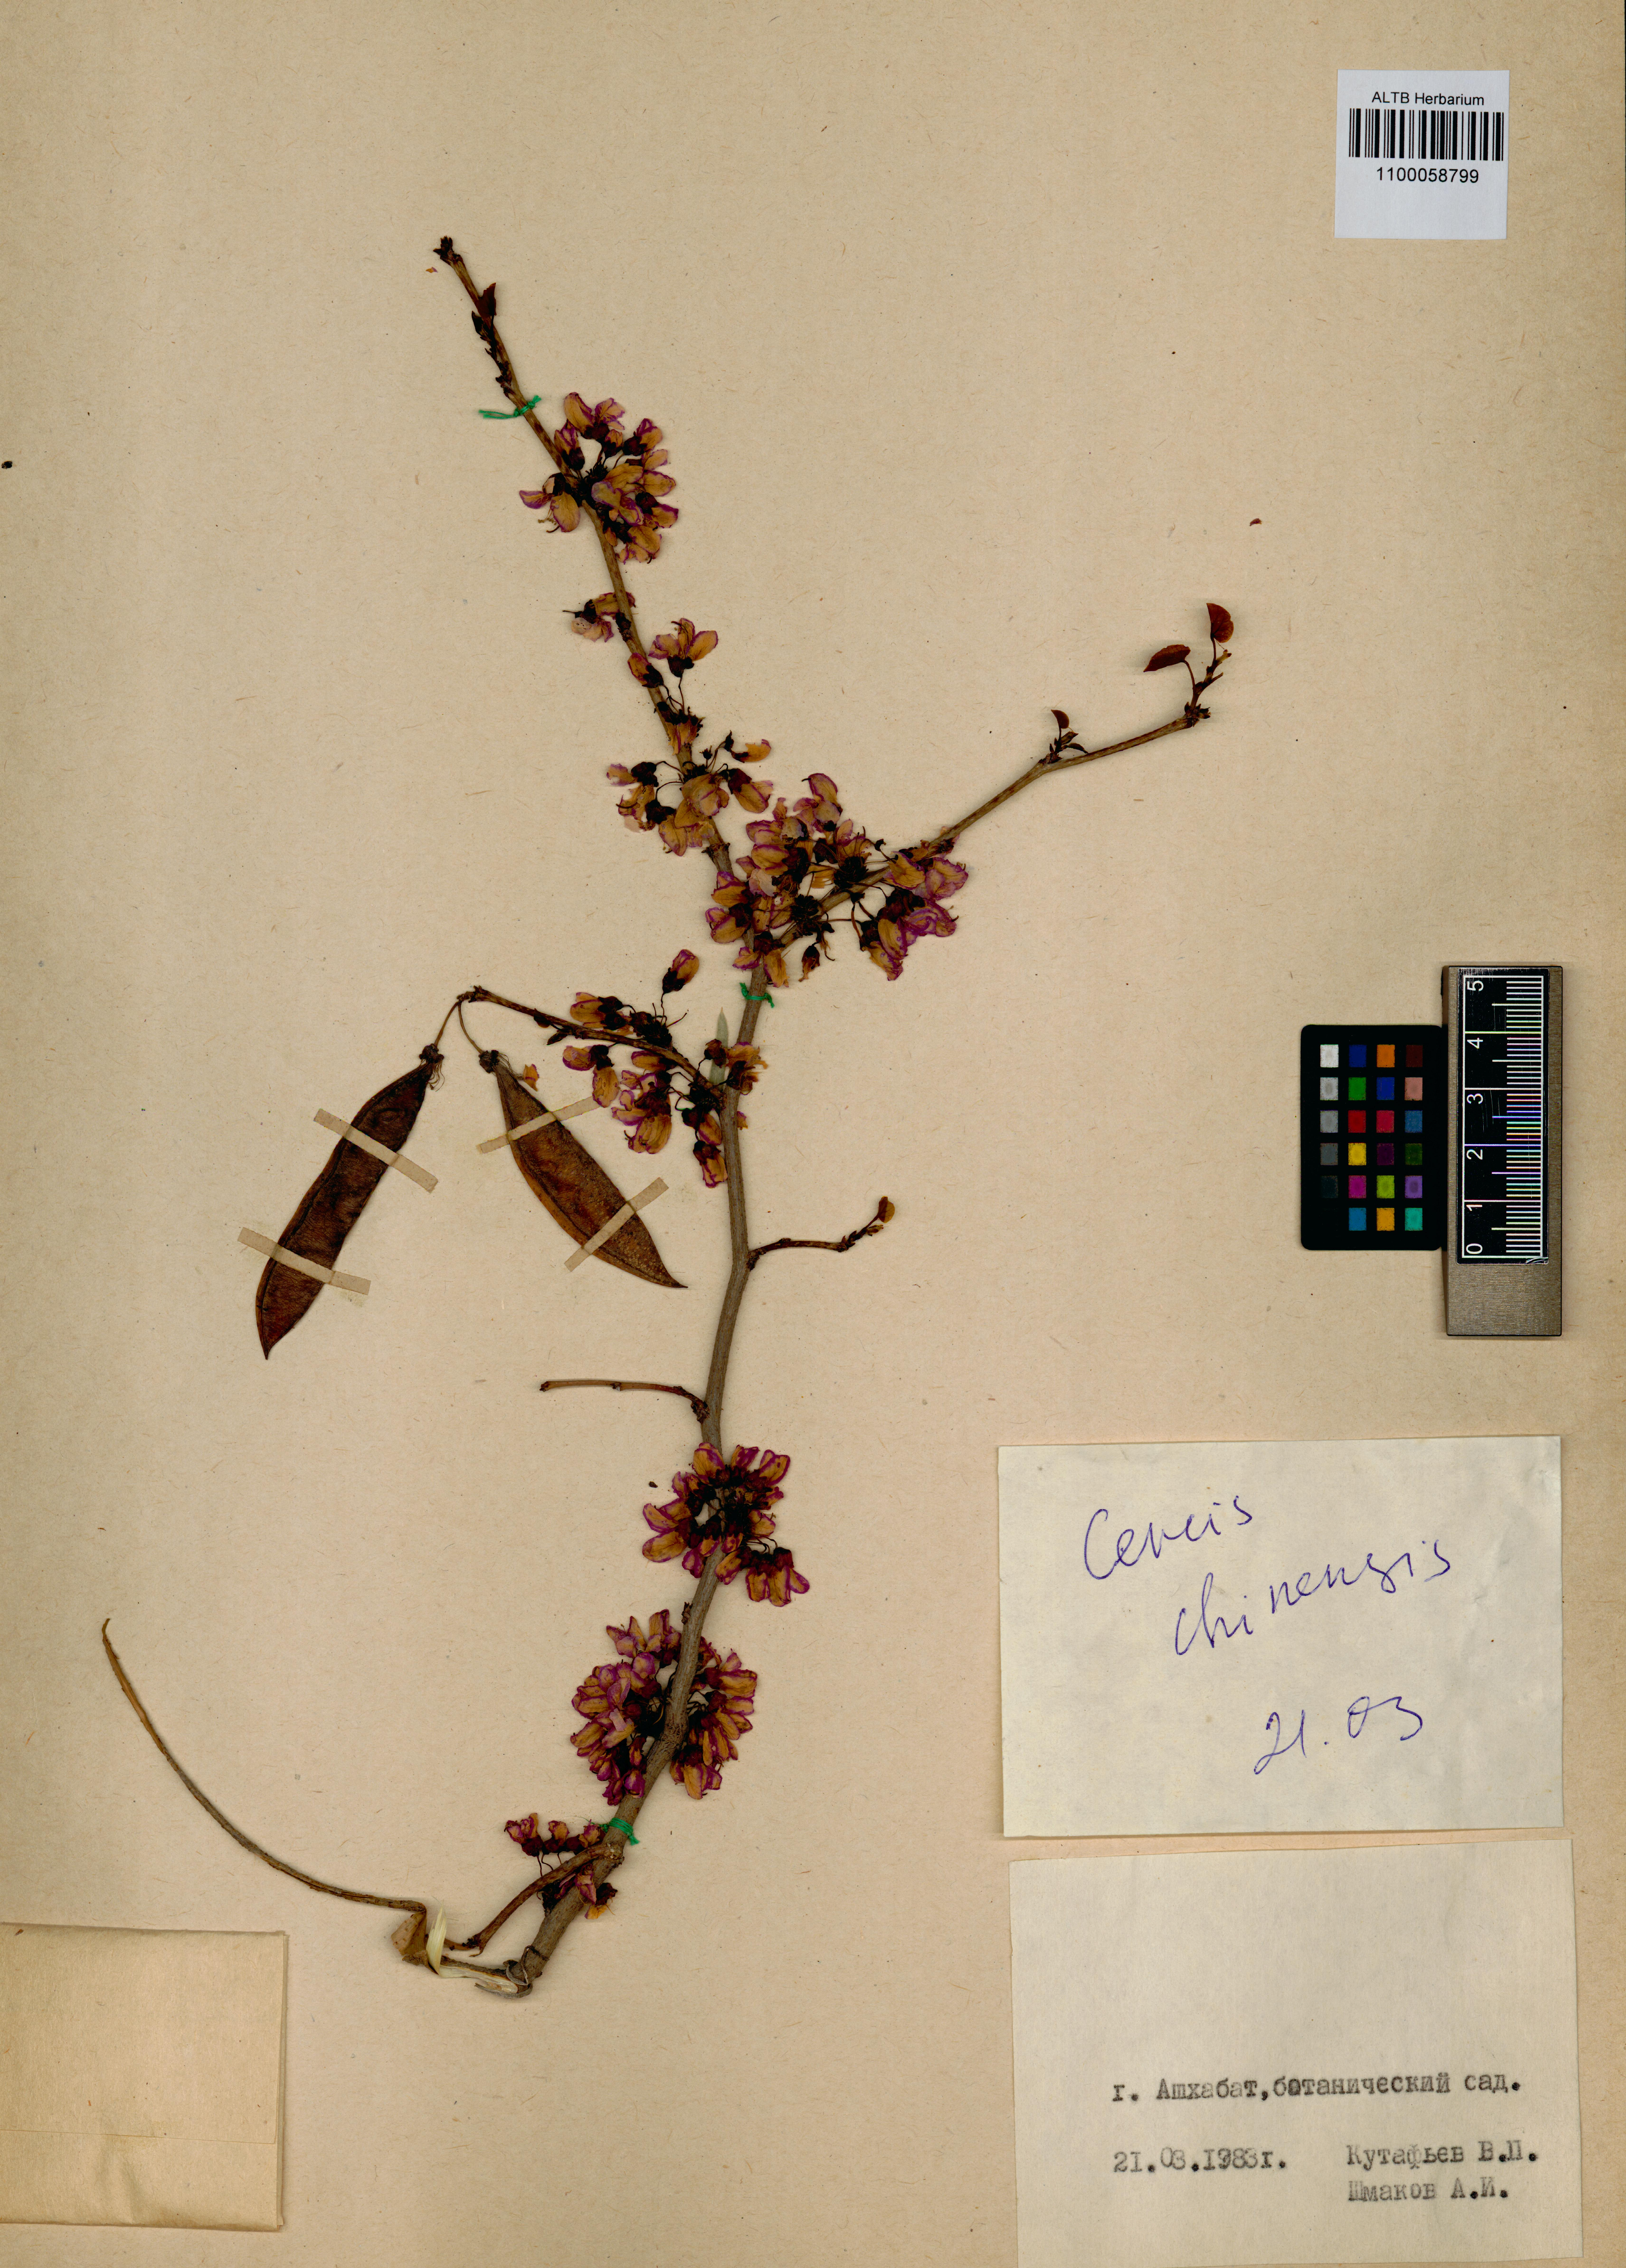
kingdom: Plantae
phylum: Tracheophyta
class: Magnoliopsida
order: Fabales
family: Fabaceae
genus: Cercis
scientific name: Cercis chinensis
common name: Chinese redbud
